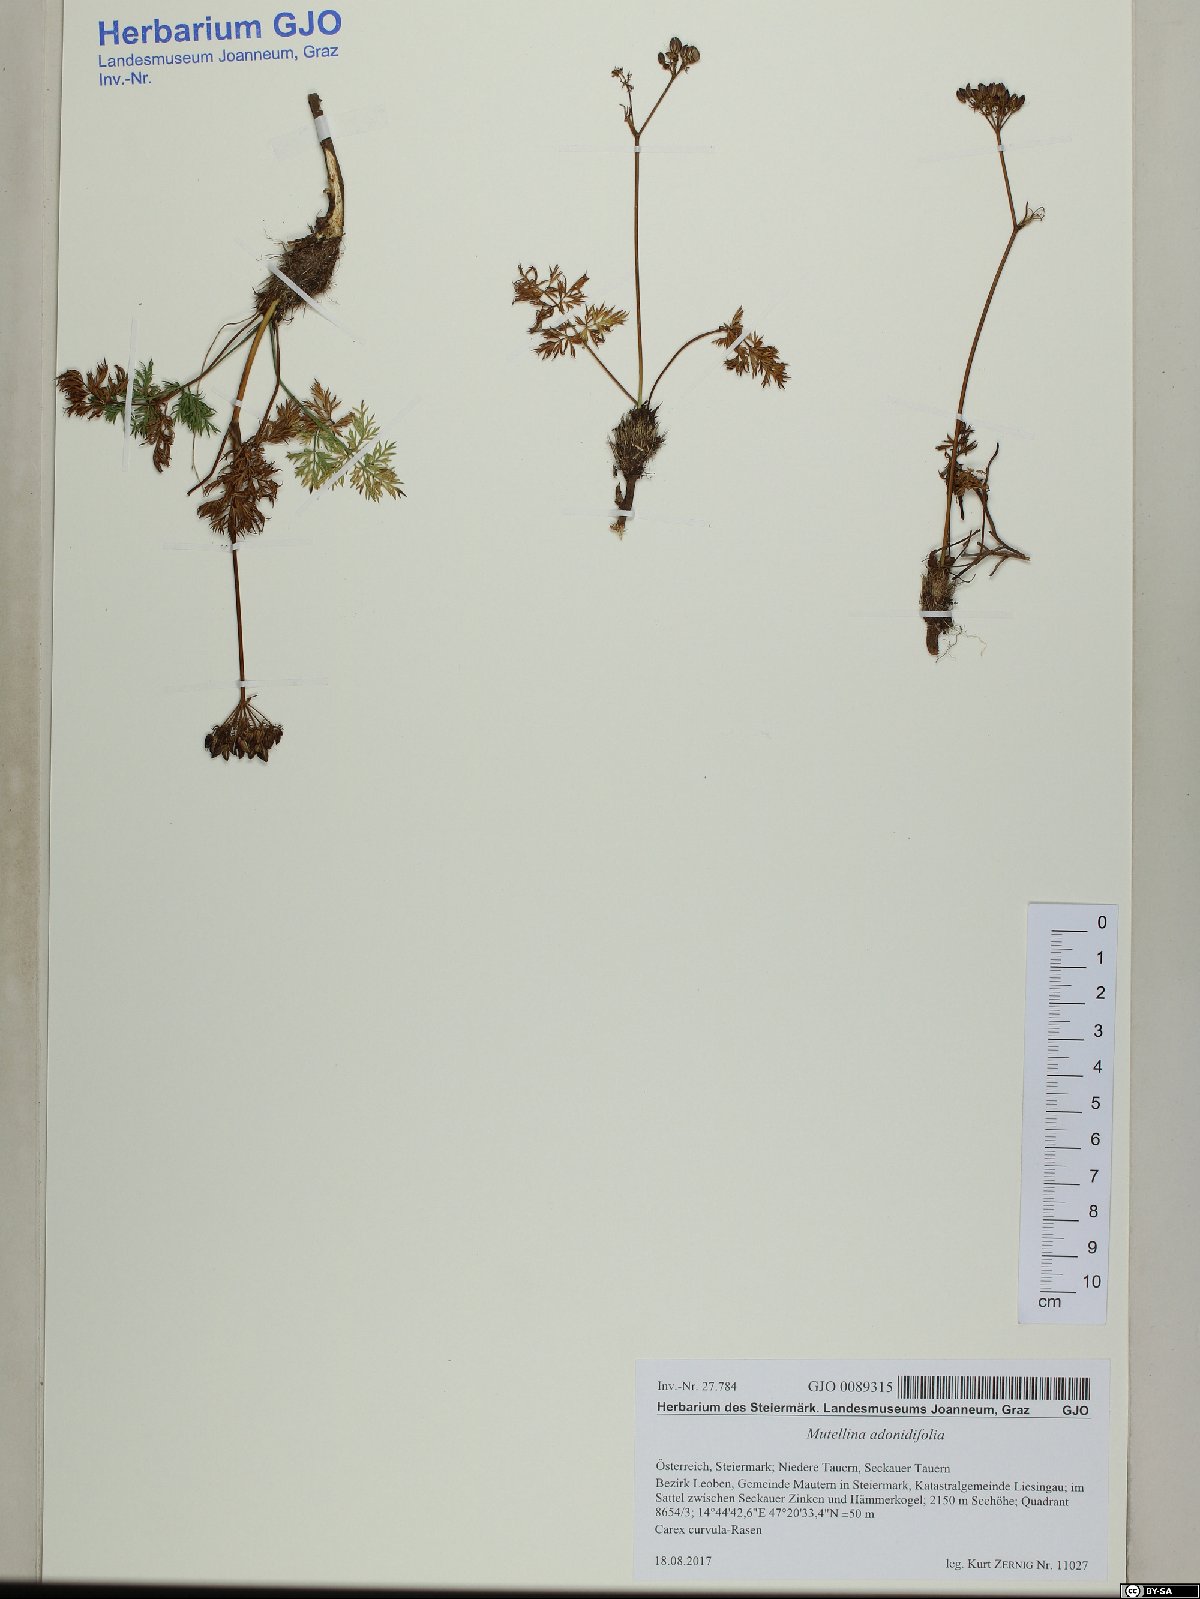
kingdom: Plantae
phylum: Tracheophyta
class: Magnoliopsida
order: Apiales
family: Apiaceae
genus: Mutellina
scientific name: Mutellina adonidifolia
